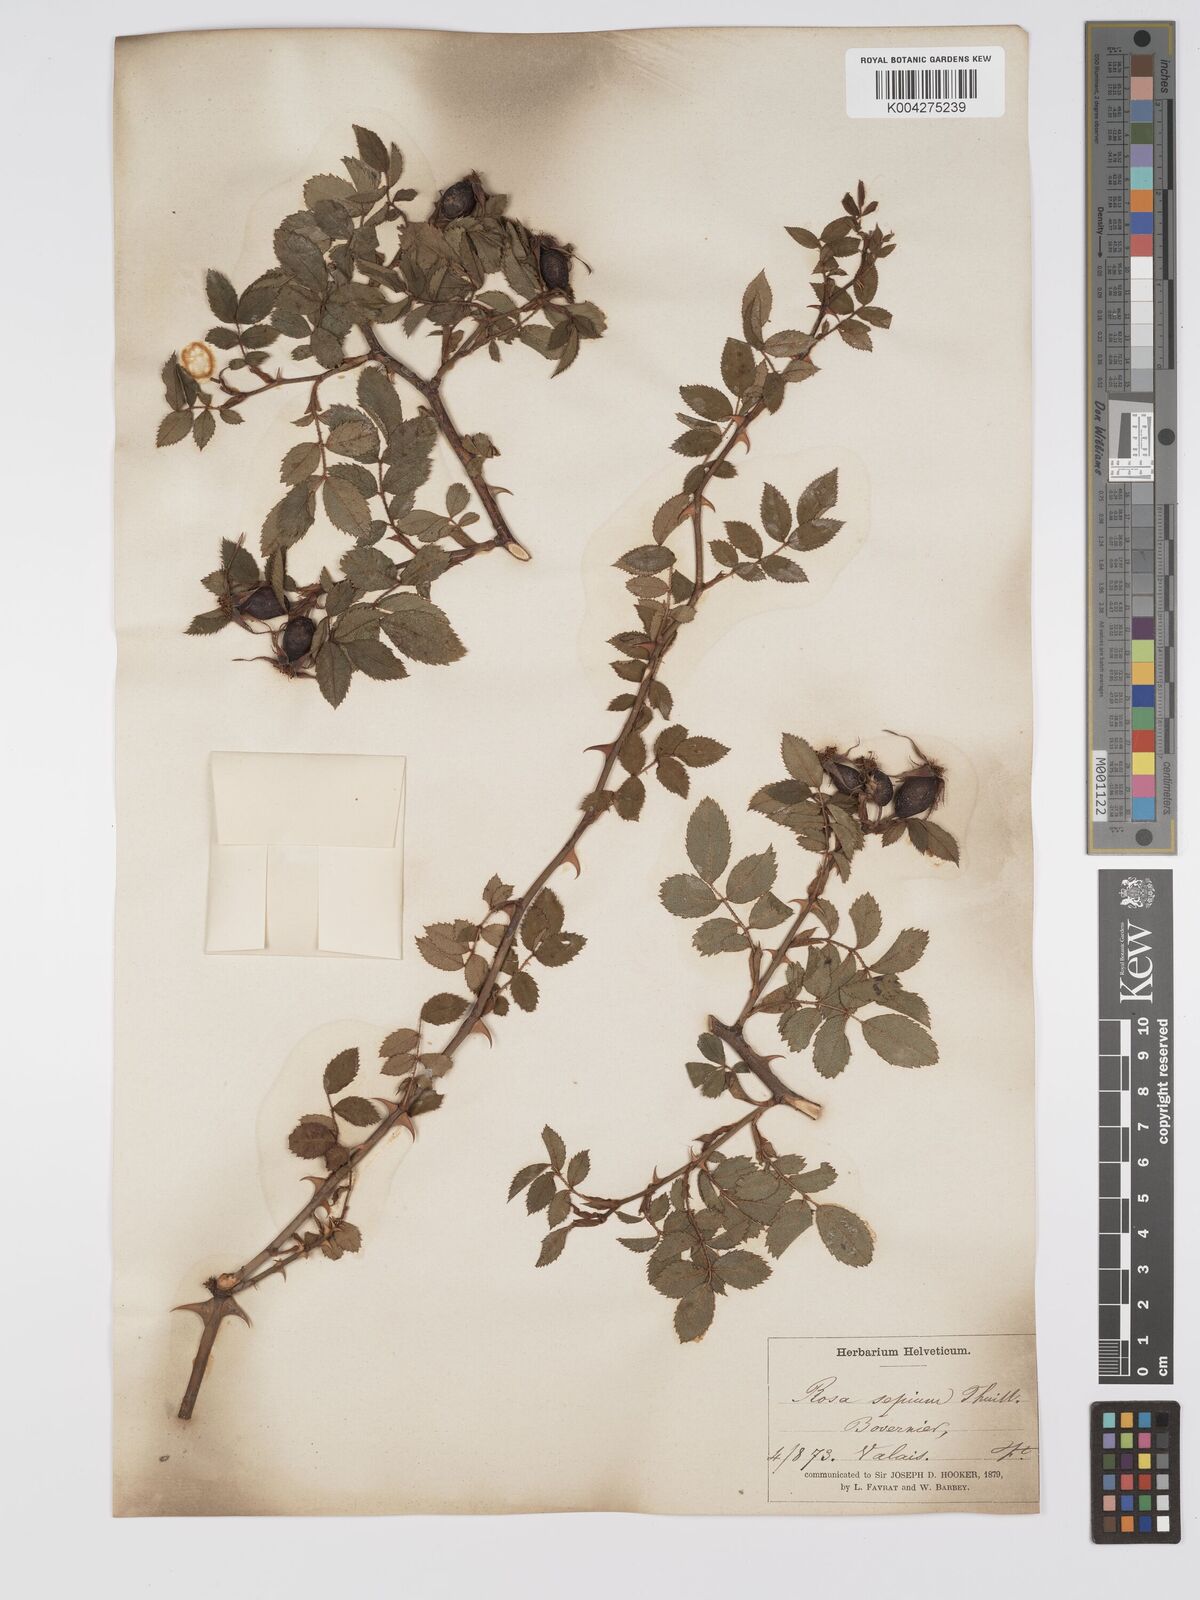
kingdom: Plantae
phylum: Tracheophyta
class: Magnoliopsida
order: Rosales
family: Rosaceae
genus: Rosa
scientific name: Rosa
